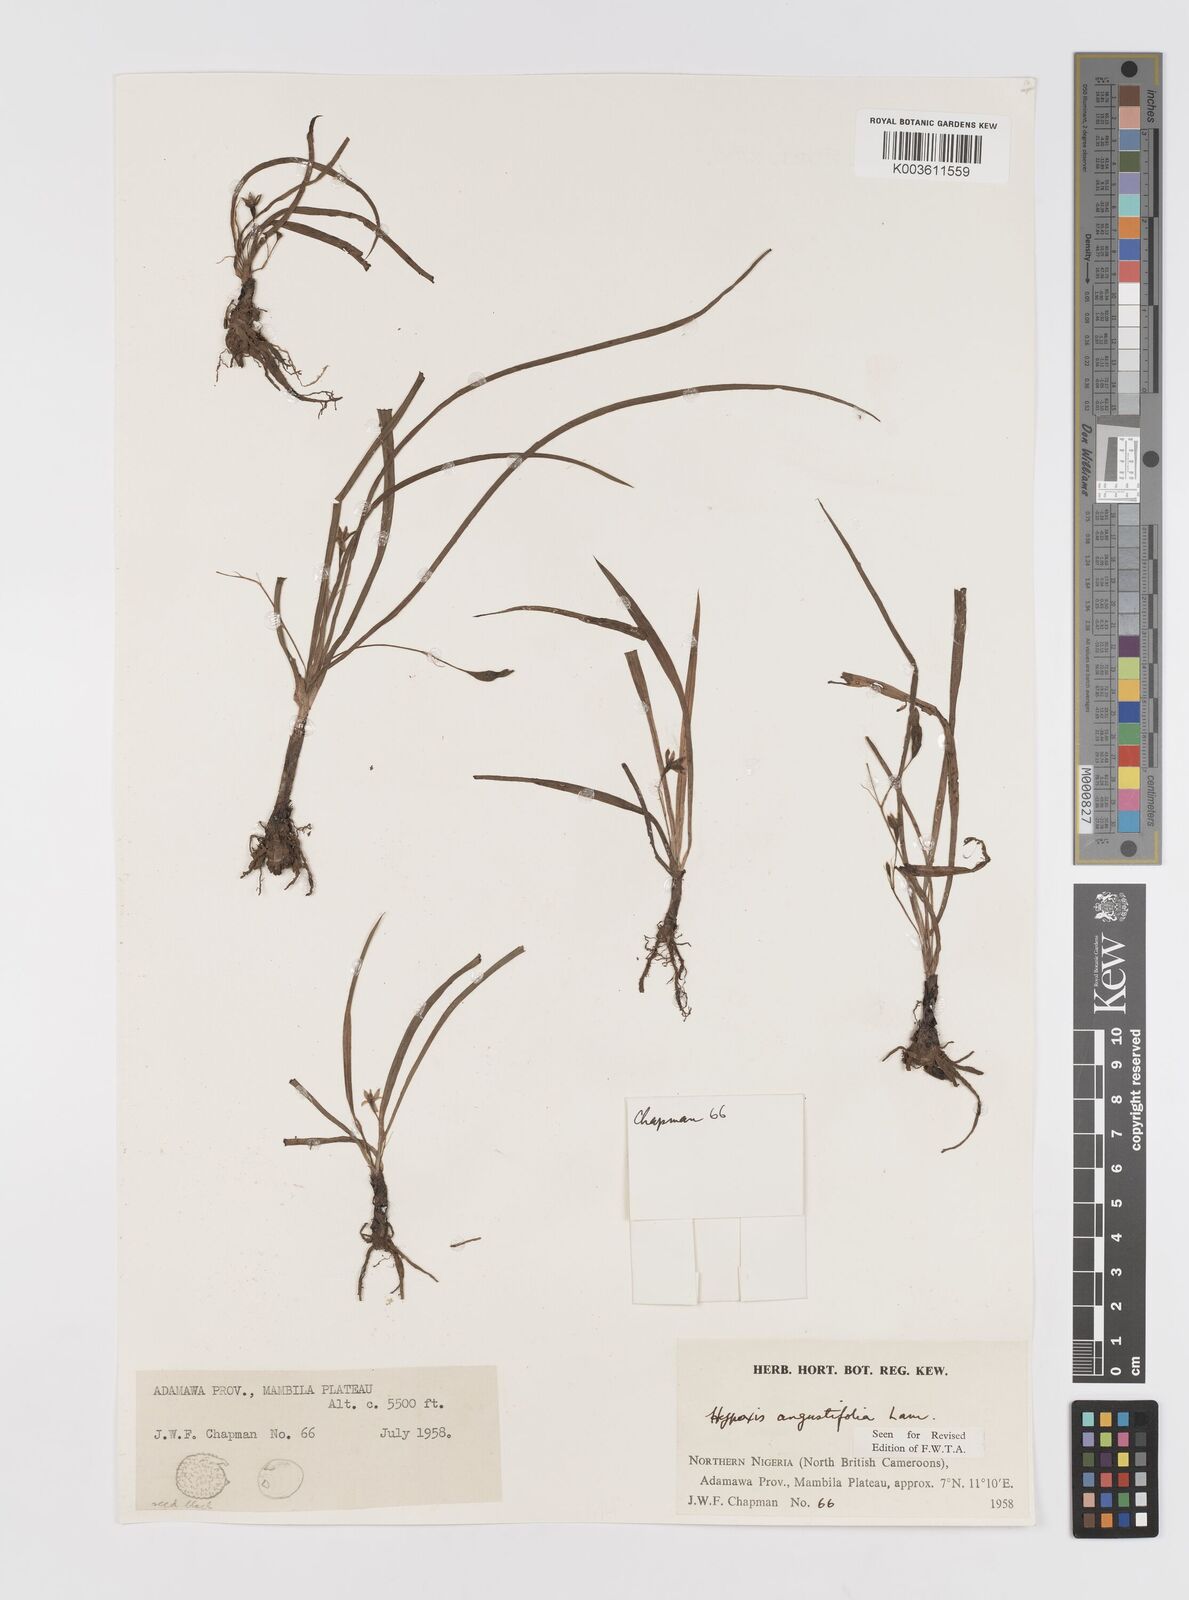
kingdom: Plantae
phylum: Tracheophyta
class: Liliopsida
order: Asparagales
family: Hypoxidaceae
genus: Hypoxis
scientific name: Hypoxis angustifolia
